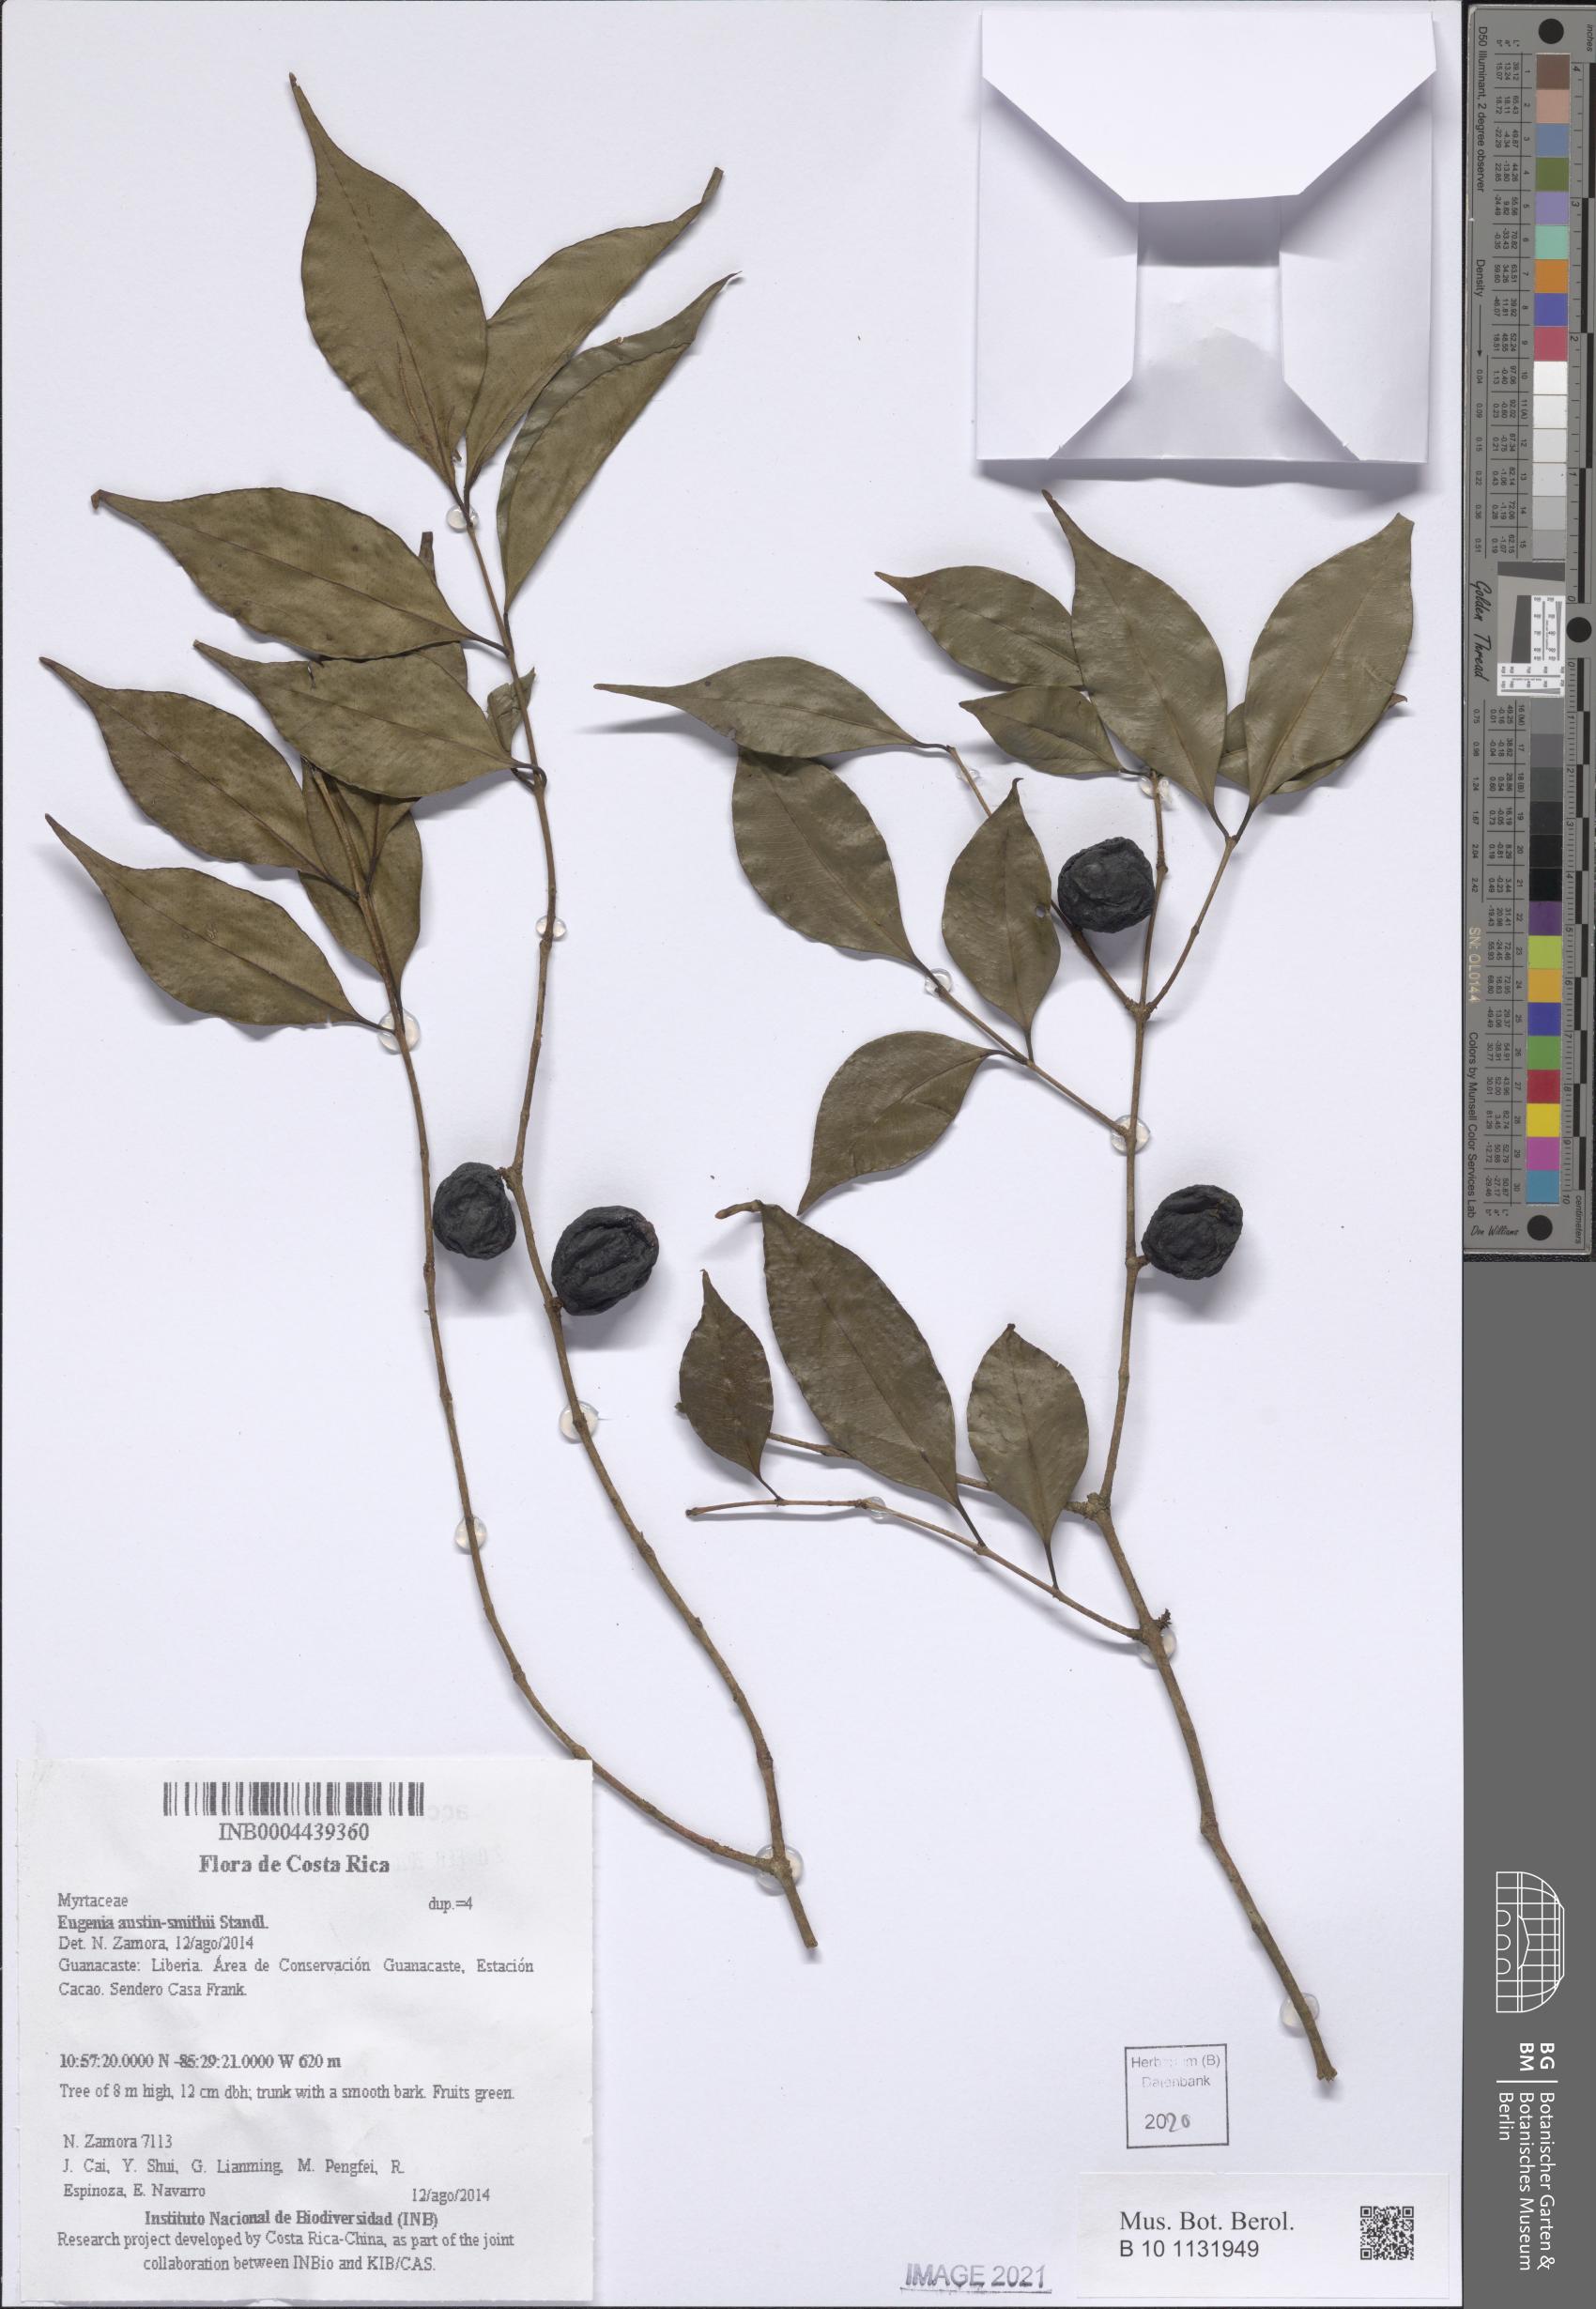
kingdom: Plantae
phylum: Tracheophyta
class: Magnoliopsida
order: Myrtales
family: Myrtaceae
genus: Eugenia
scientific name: Eugenia austin-smithii
